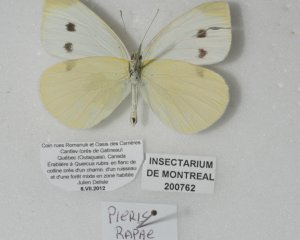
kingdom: Animalia
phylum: Arthropoda
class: Insecta
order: Lepidoptera
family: Pieridae
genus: Pieris
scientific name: Pieris rapae
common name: Cabbage White
